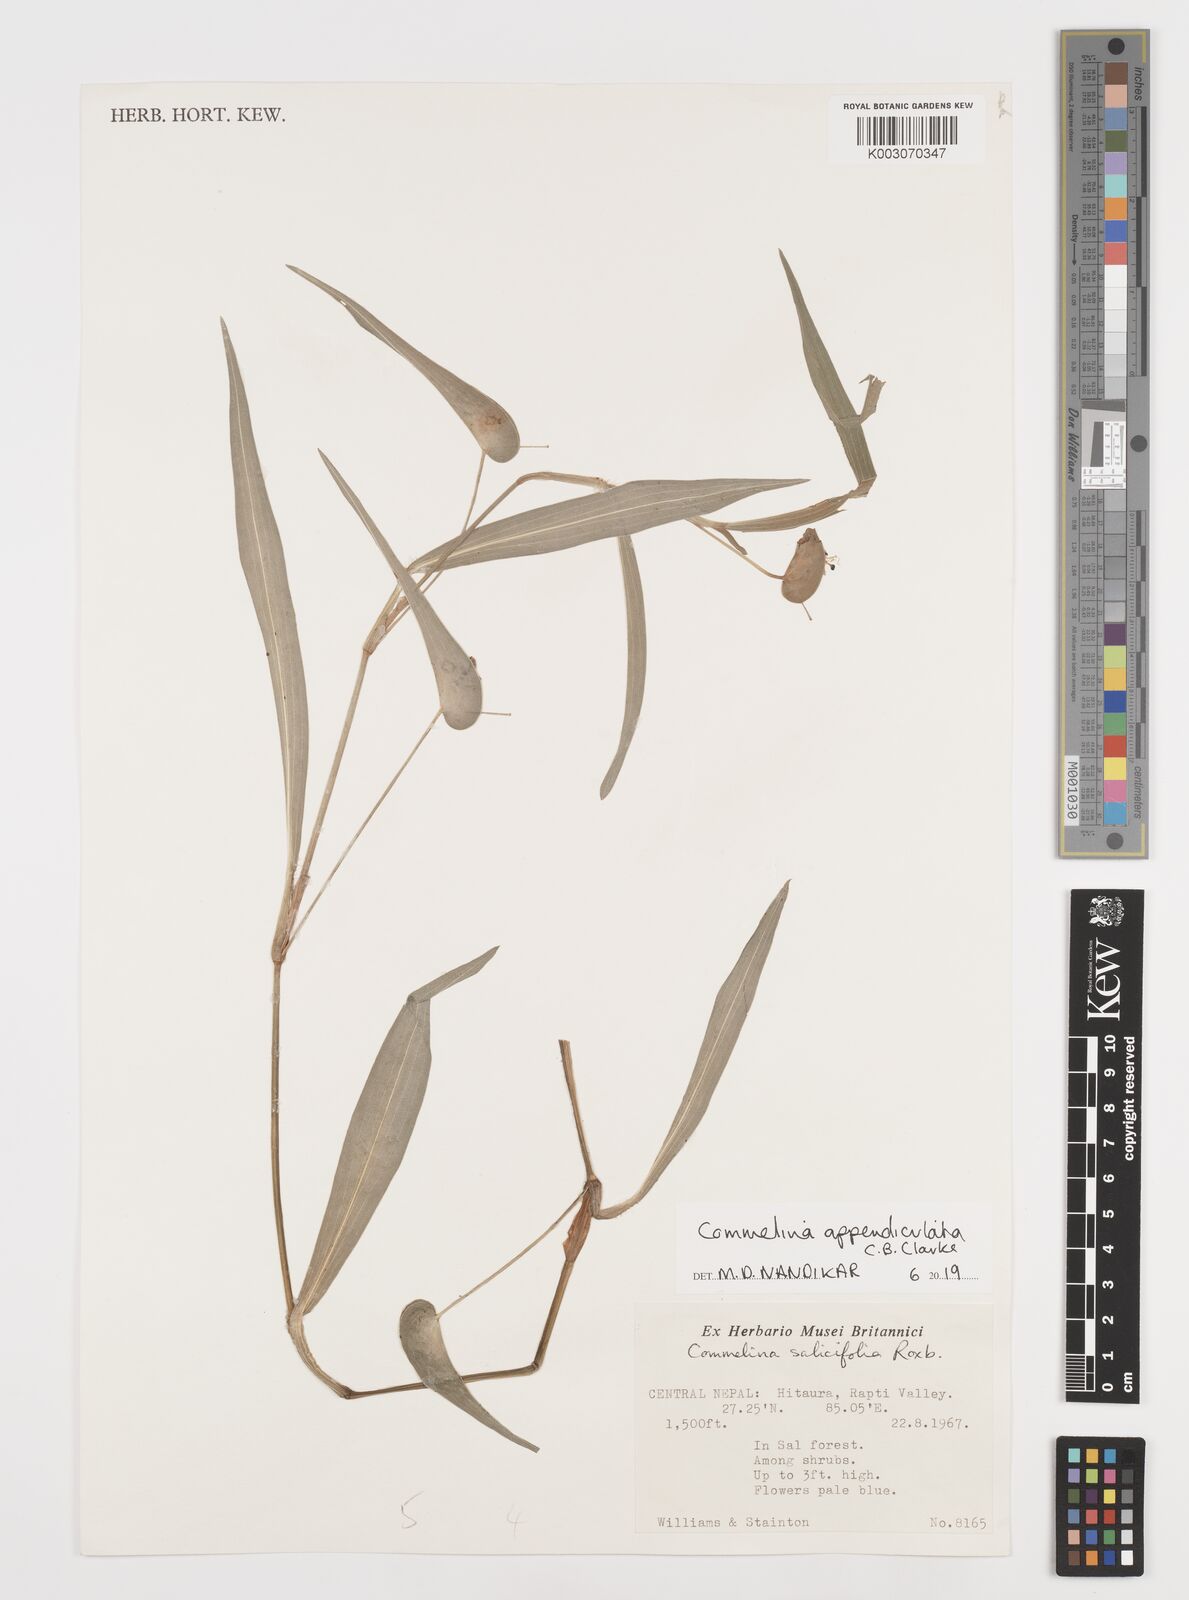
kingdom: Plantae
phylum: Tracheophyta
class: Liliopsida
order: Commelinales
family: Commelinaceae
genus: Commelina
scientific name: Commelina appendiculata
